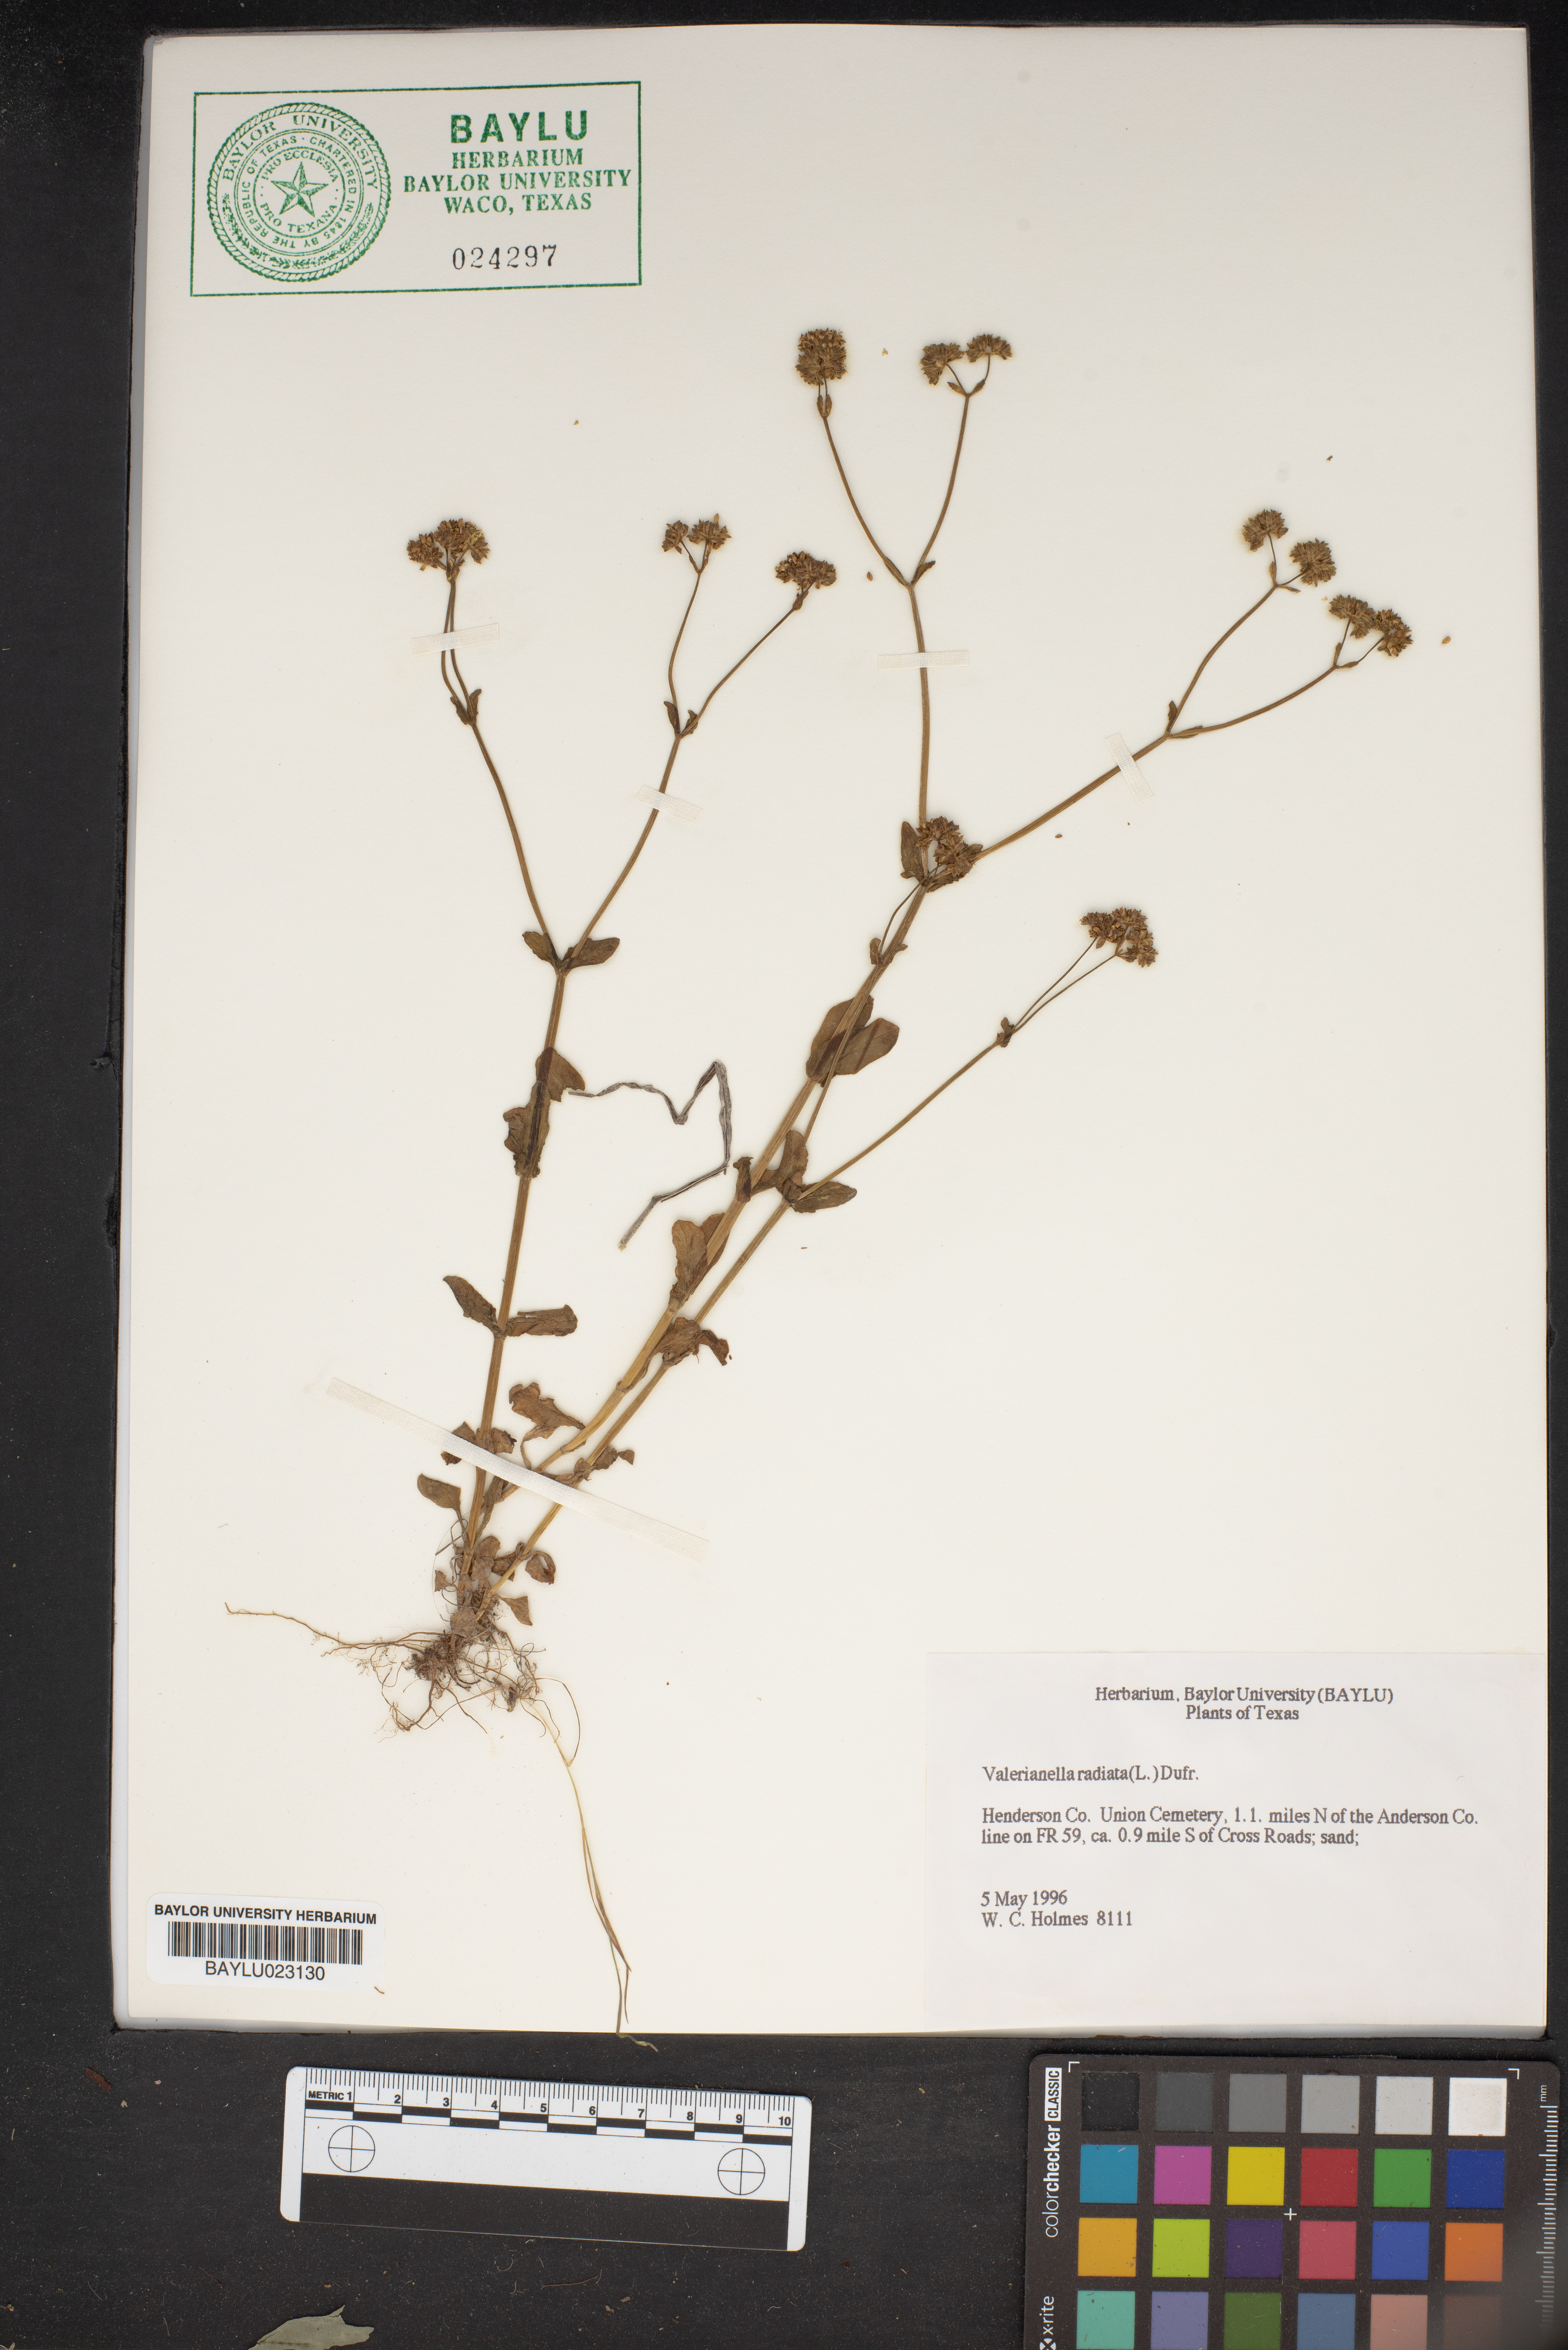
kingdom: Plantae
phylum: Tracheophyta
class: Magnoliopsida
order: Dipsacales
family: Caprifoliaceae
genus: Valerianella
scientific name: Valerianella radiata
